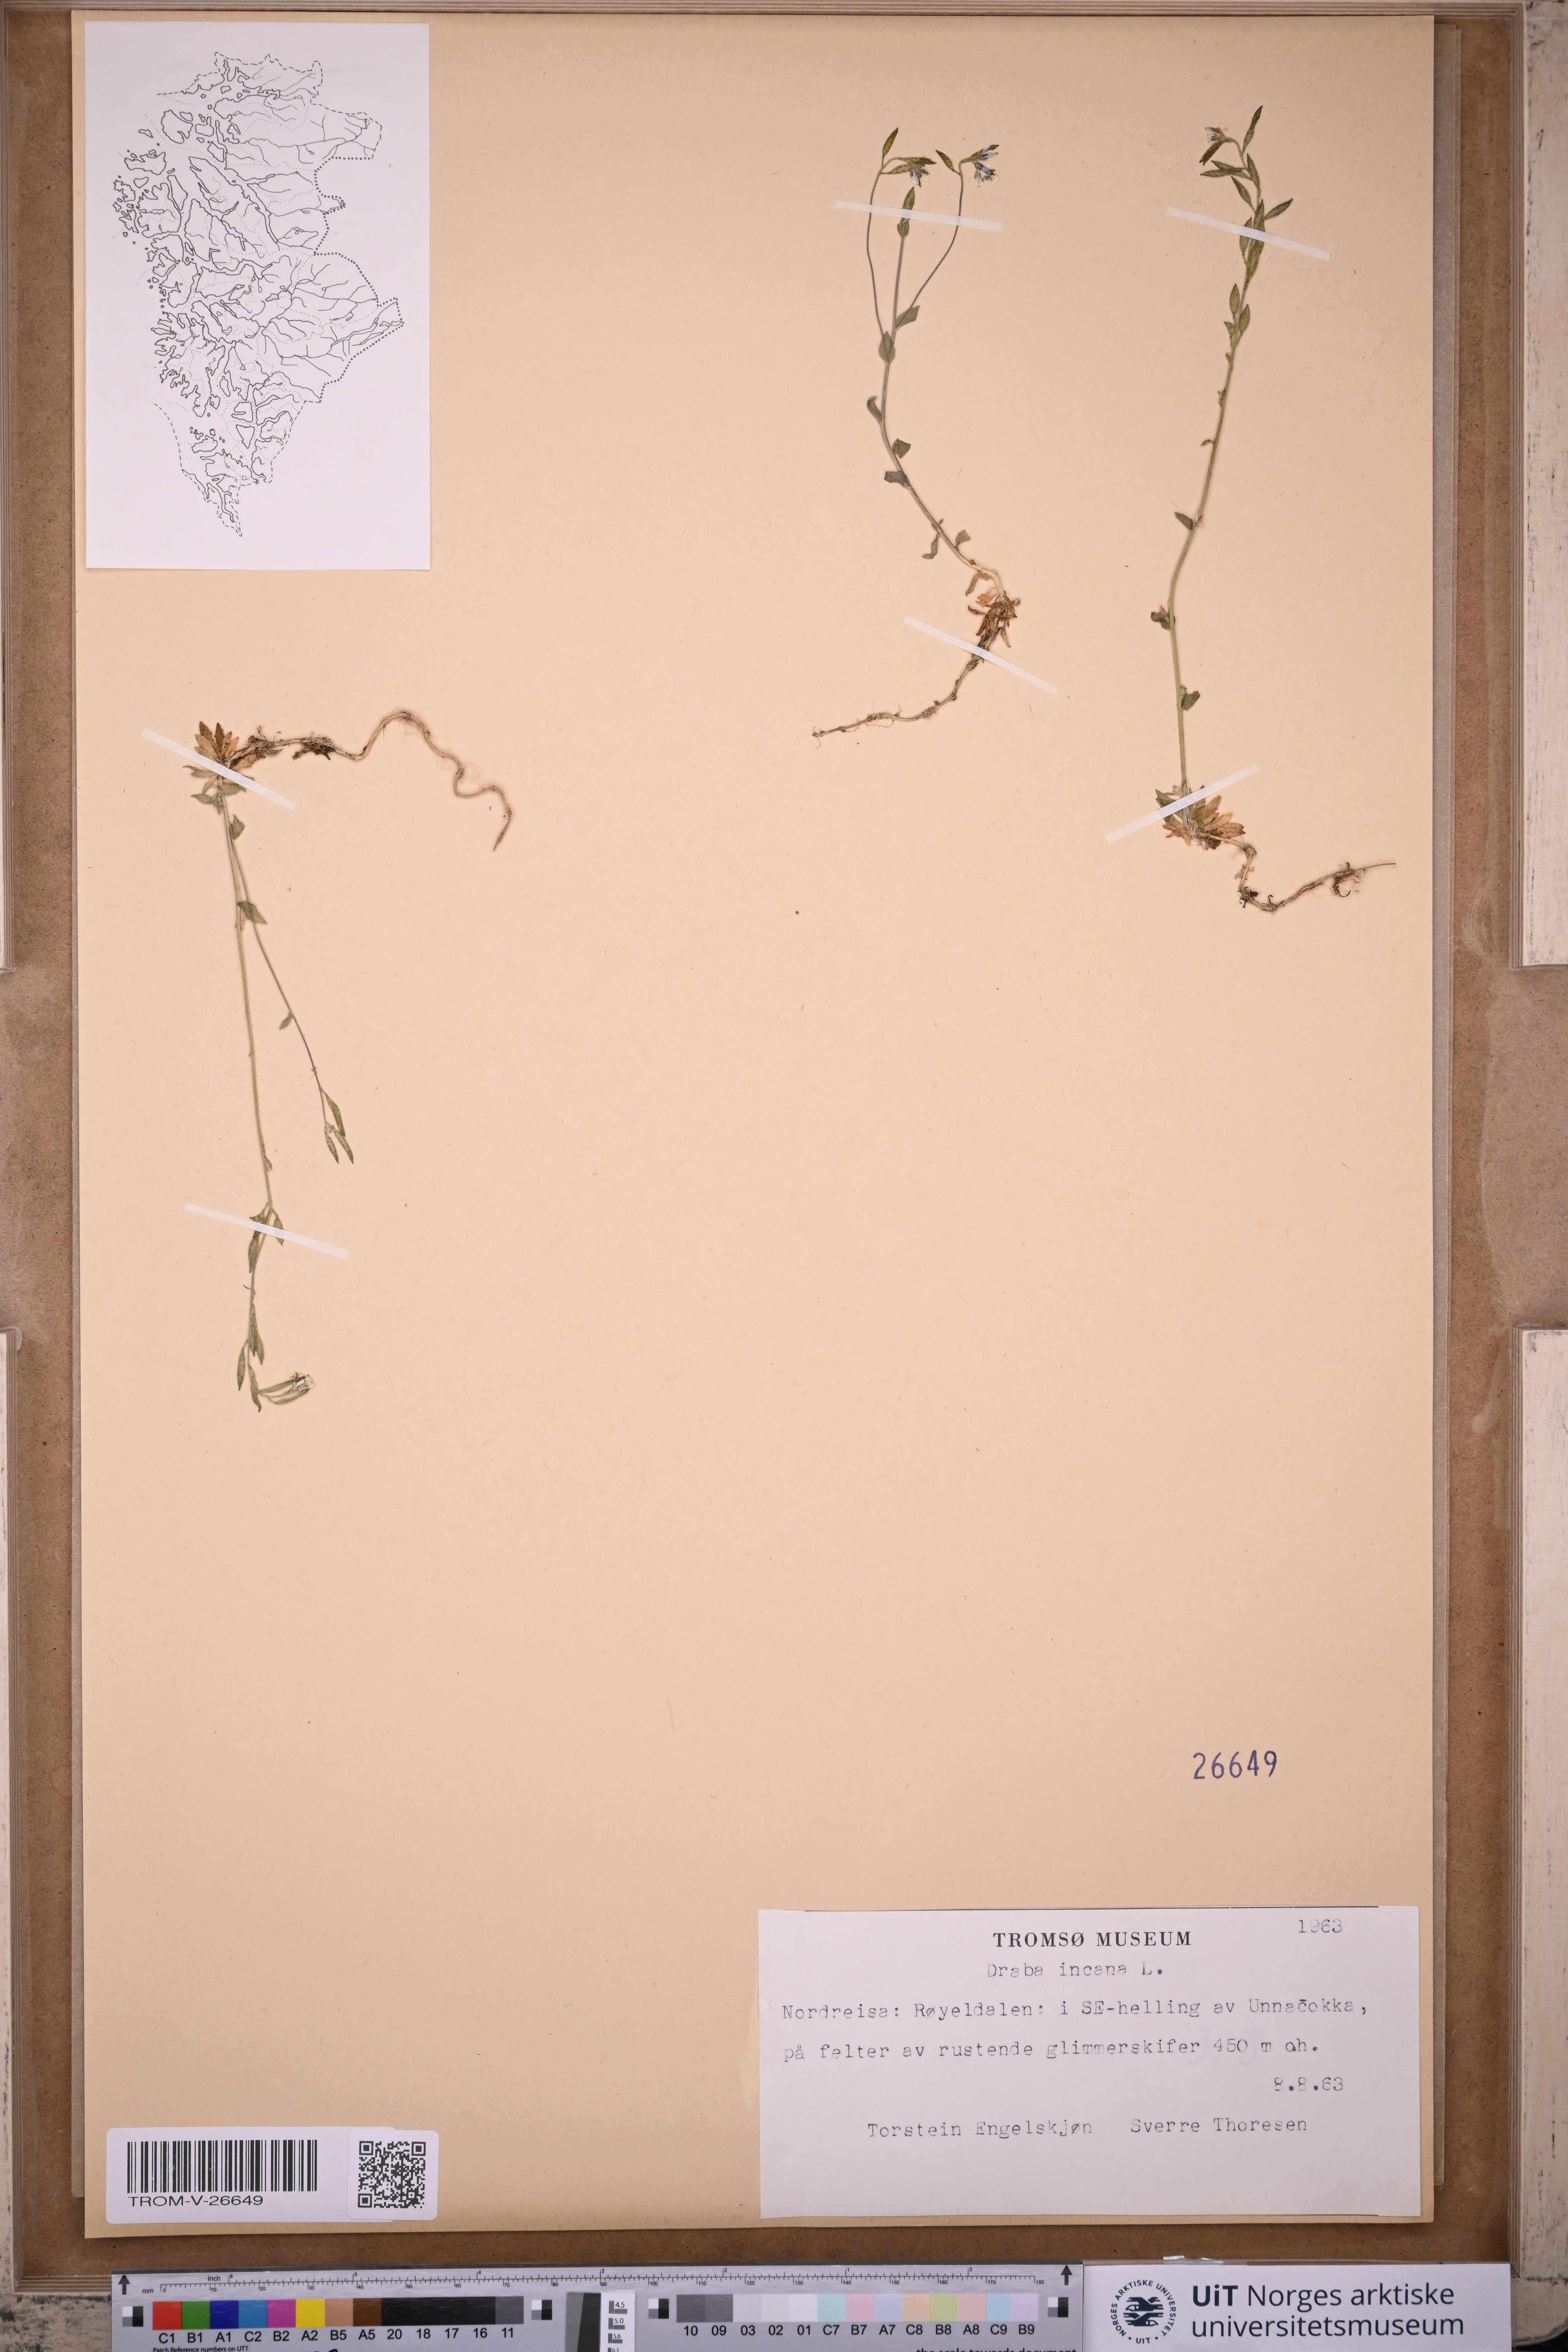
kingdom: Plantae
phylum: Tracheophyta
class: Magnoliopsida
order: Brassicales
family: Brassicaceae
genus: Draba
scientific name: Draba incana
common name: Hoary whitlow-grass
